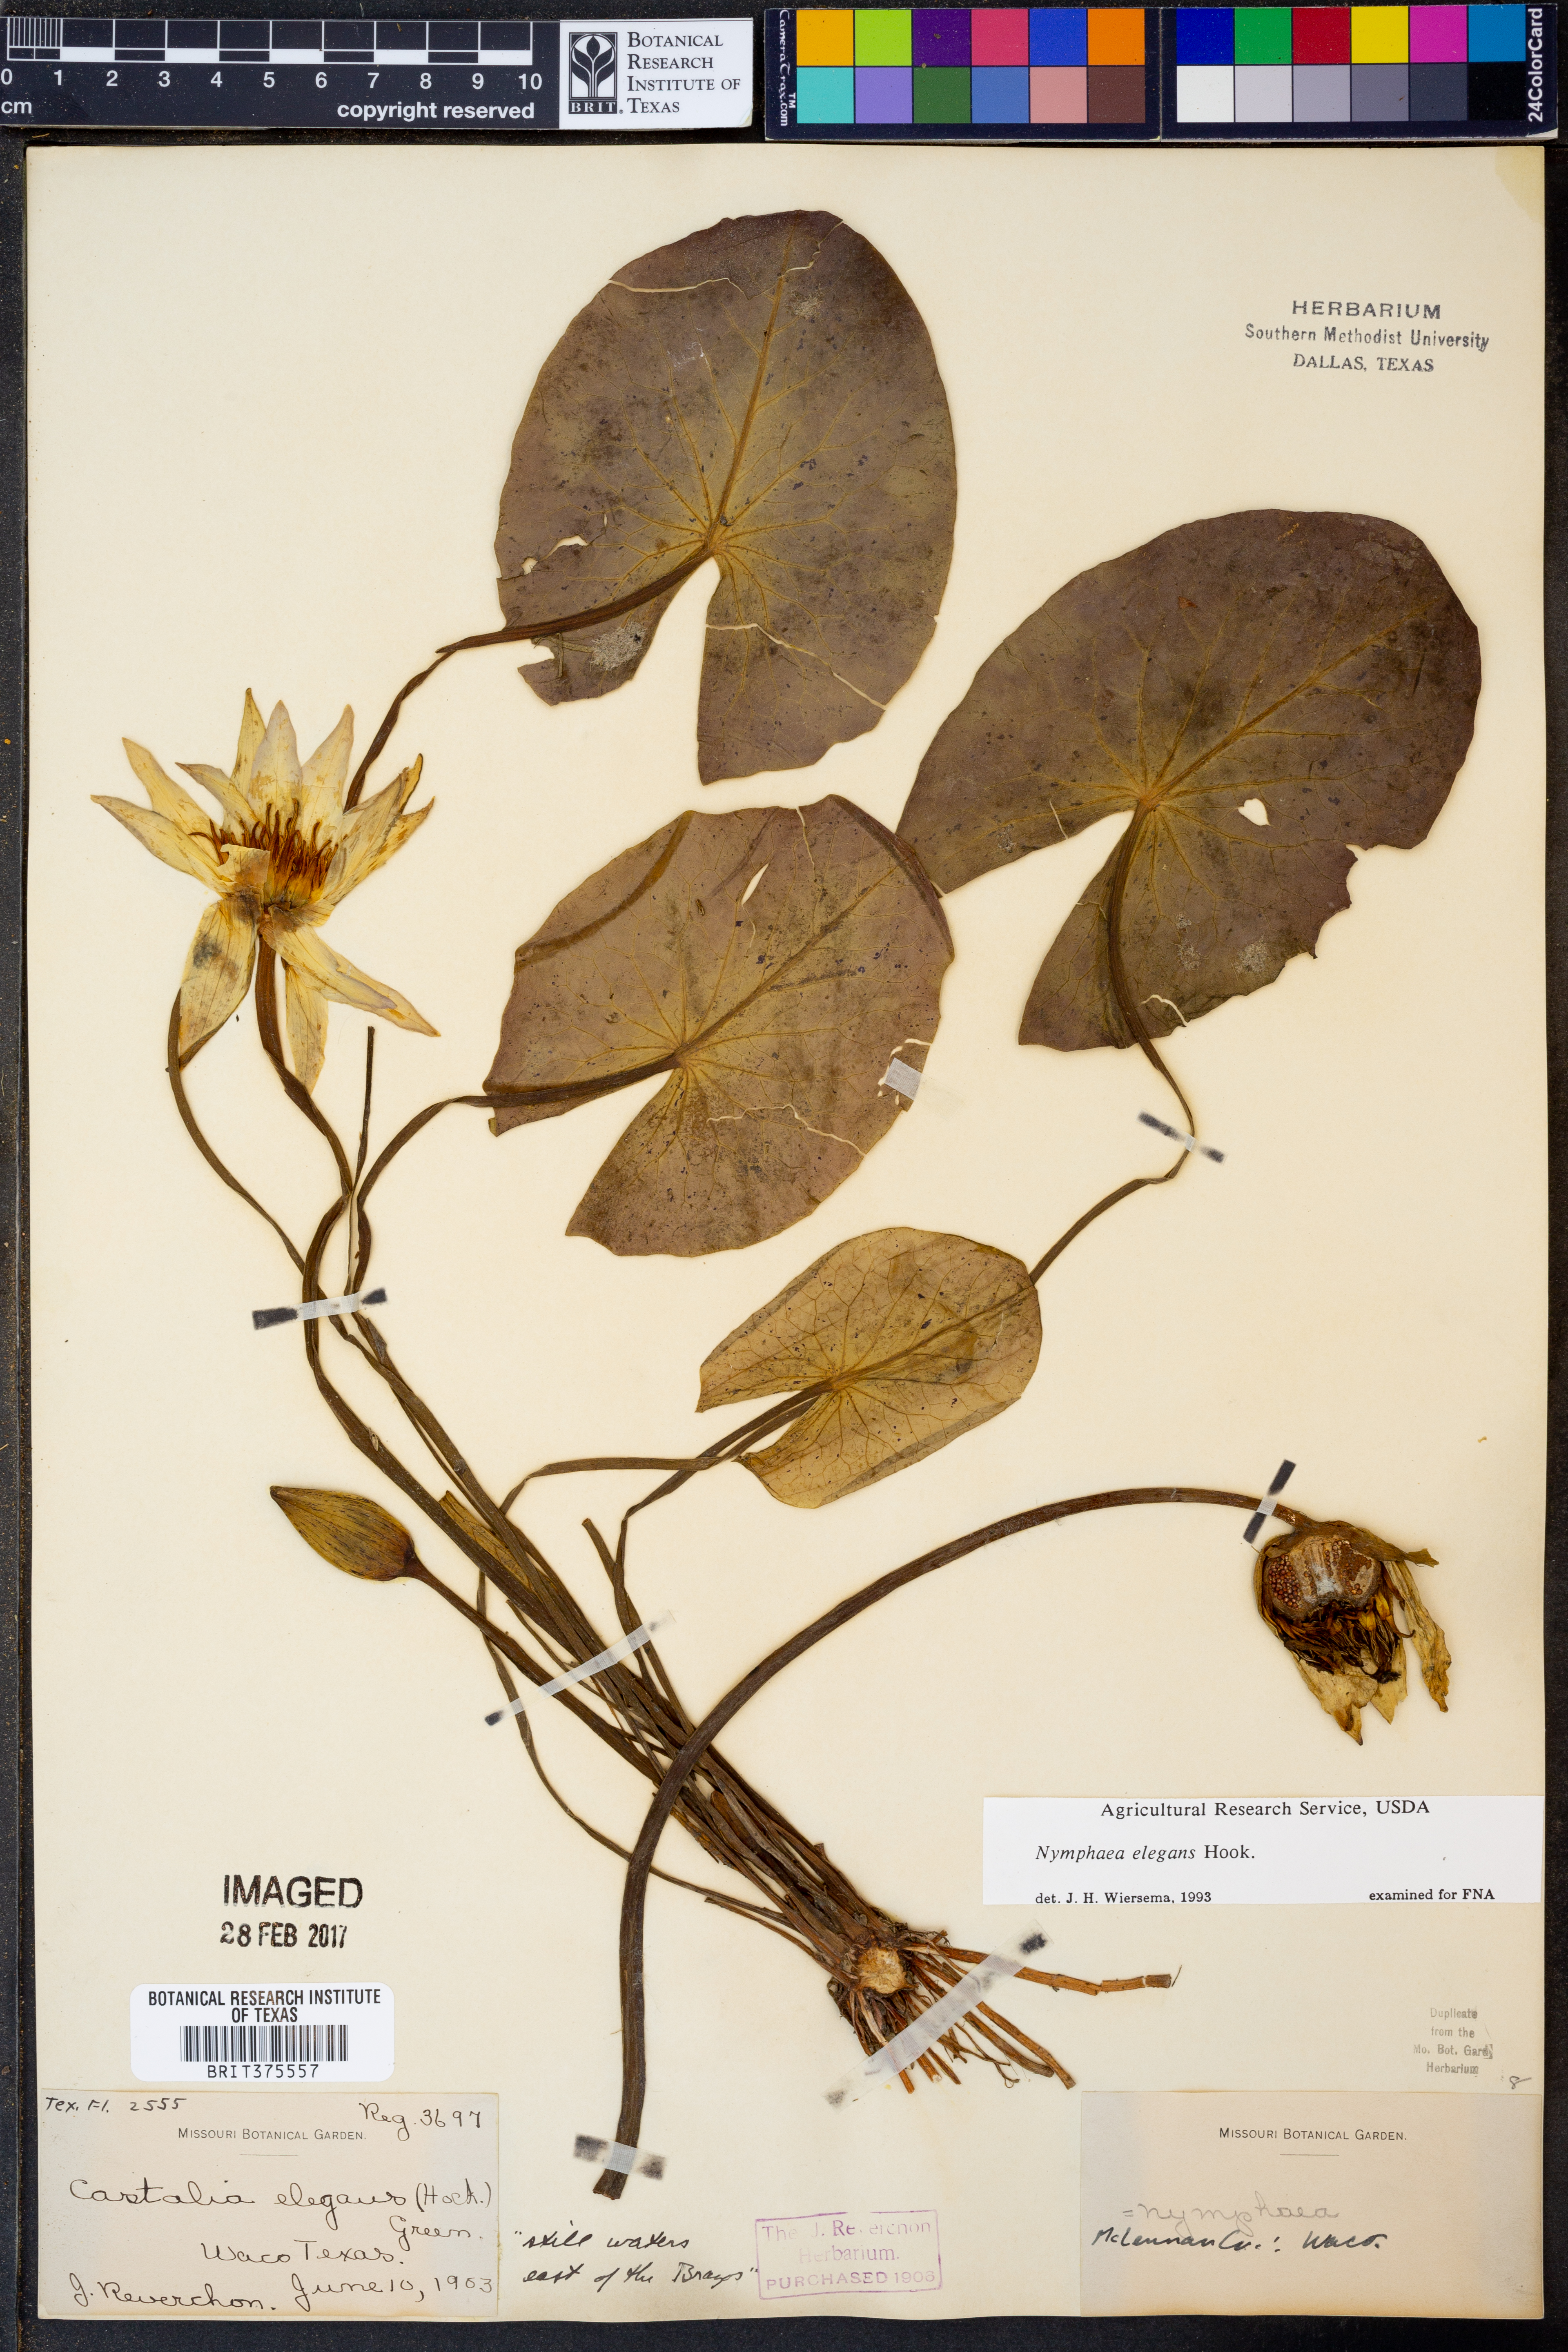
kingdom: Plantae
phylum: Tracheophyta
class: Magnoliopsida
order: Nymphaeales
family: Nymphaeaceae
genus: Nymphaea
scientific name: Nymphaea elegans
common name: Blue water-lily
